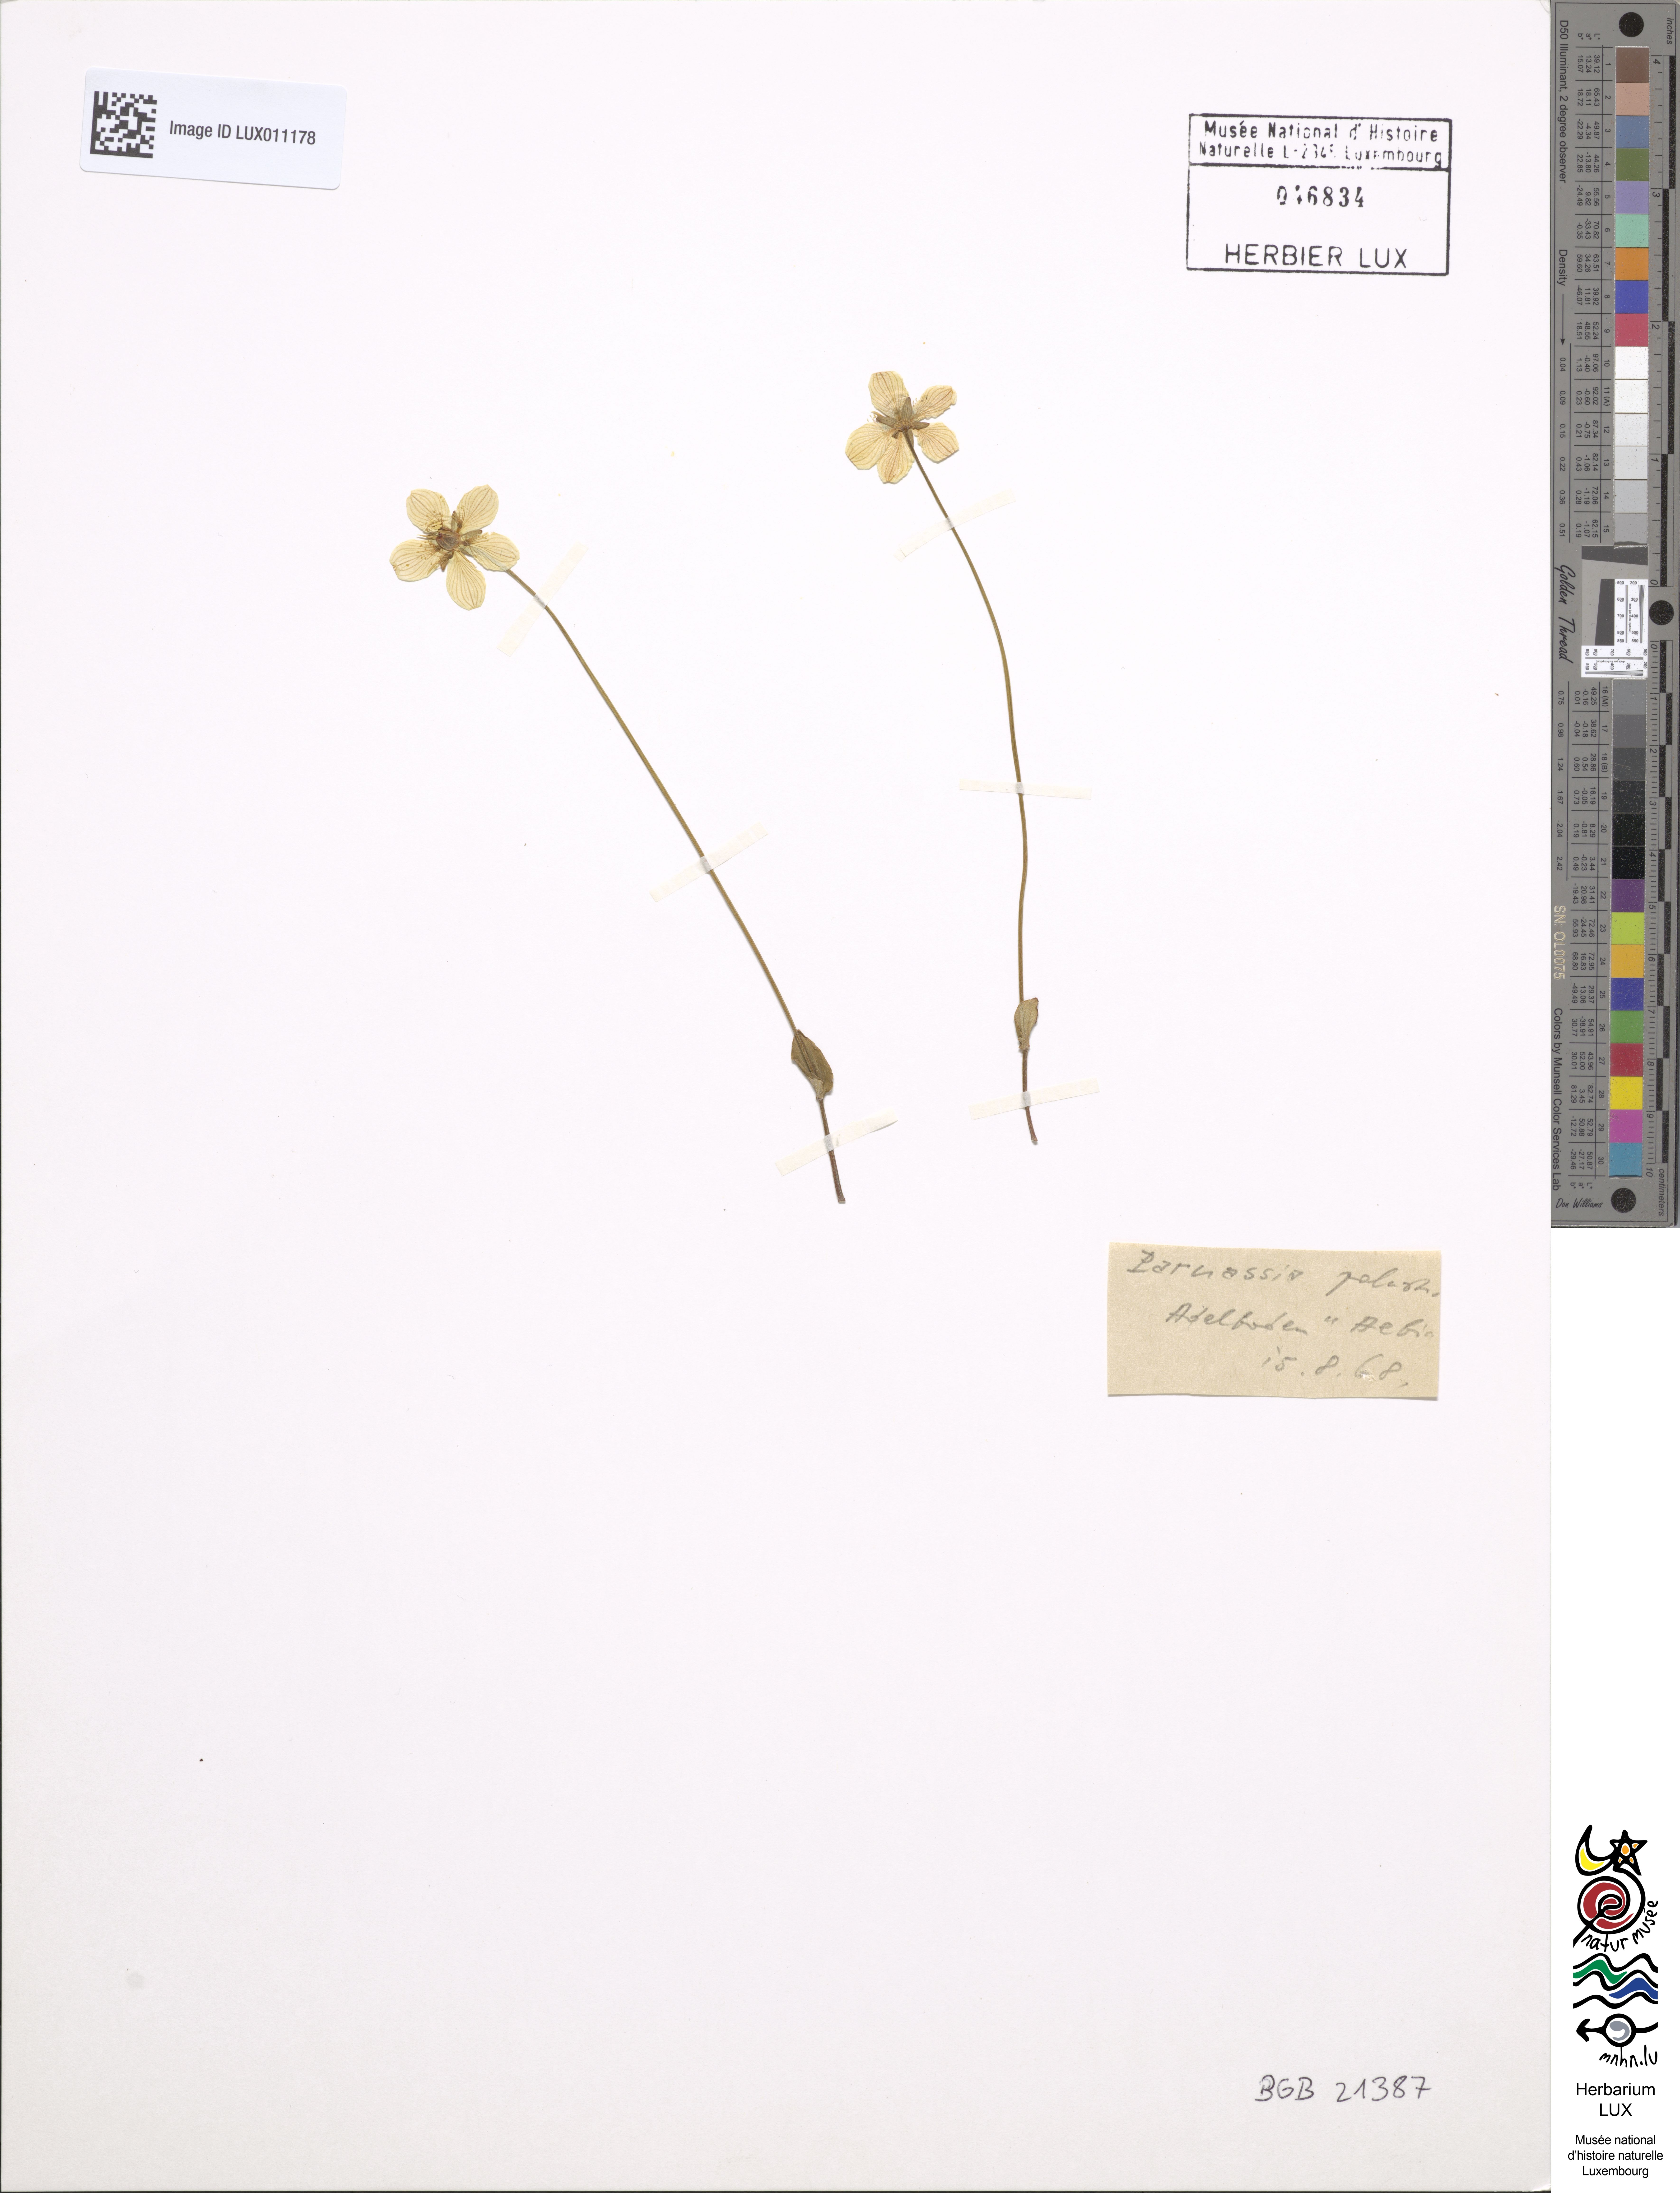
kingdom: Plantae
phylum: Tracheophyta
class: Magnoliopsida
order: Celastrales
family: Parnassiaceae
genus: Parnassia
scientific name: Parnassia palustris
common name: Grass-of-parnassus
